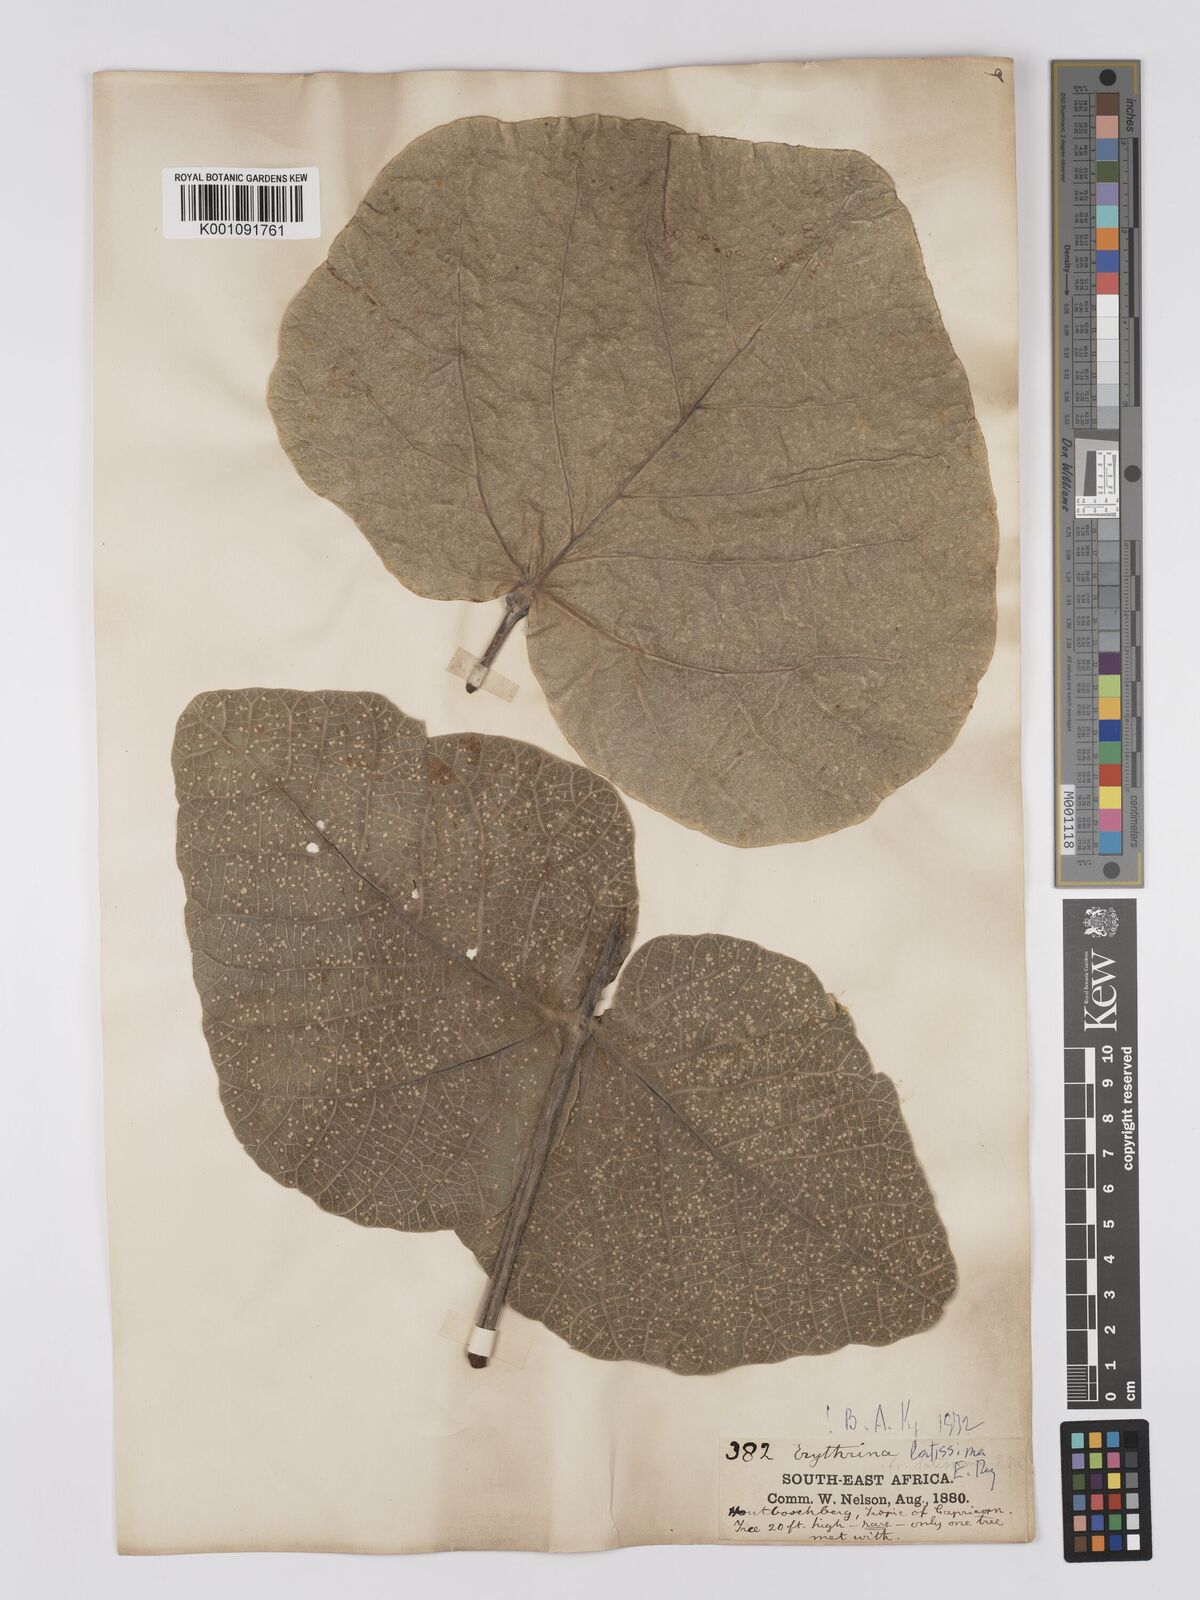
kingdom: Plantae
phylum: Tracheophyta
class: Magnoliopsida
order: Fabales
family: Fabaceae
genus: Erythrina
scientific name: Erythrina latissima
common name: Broad-leaved coral tree
